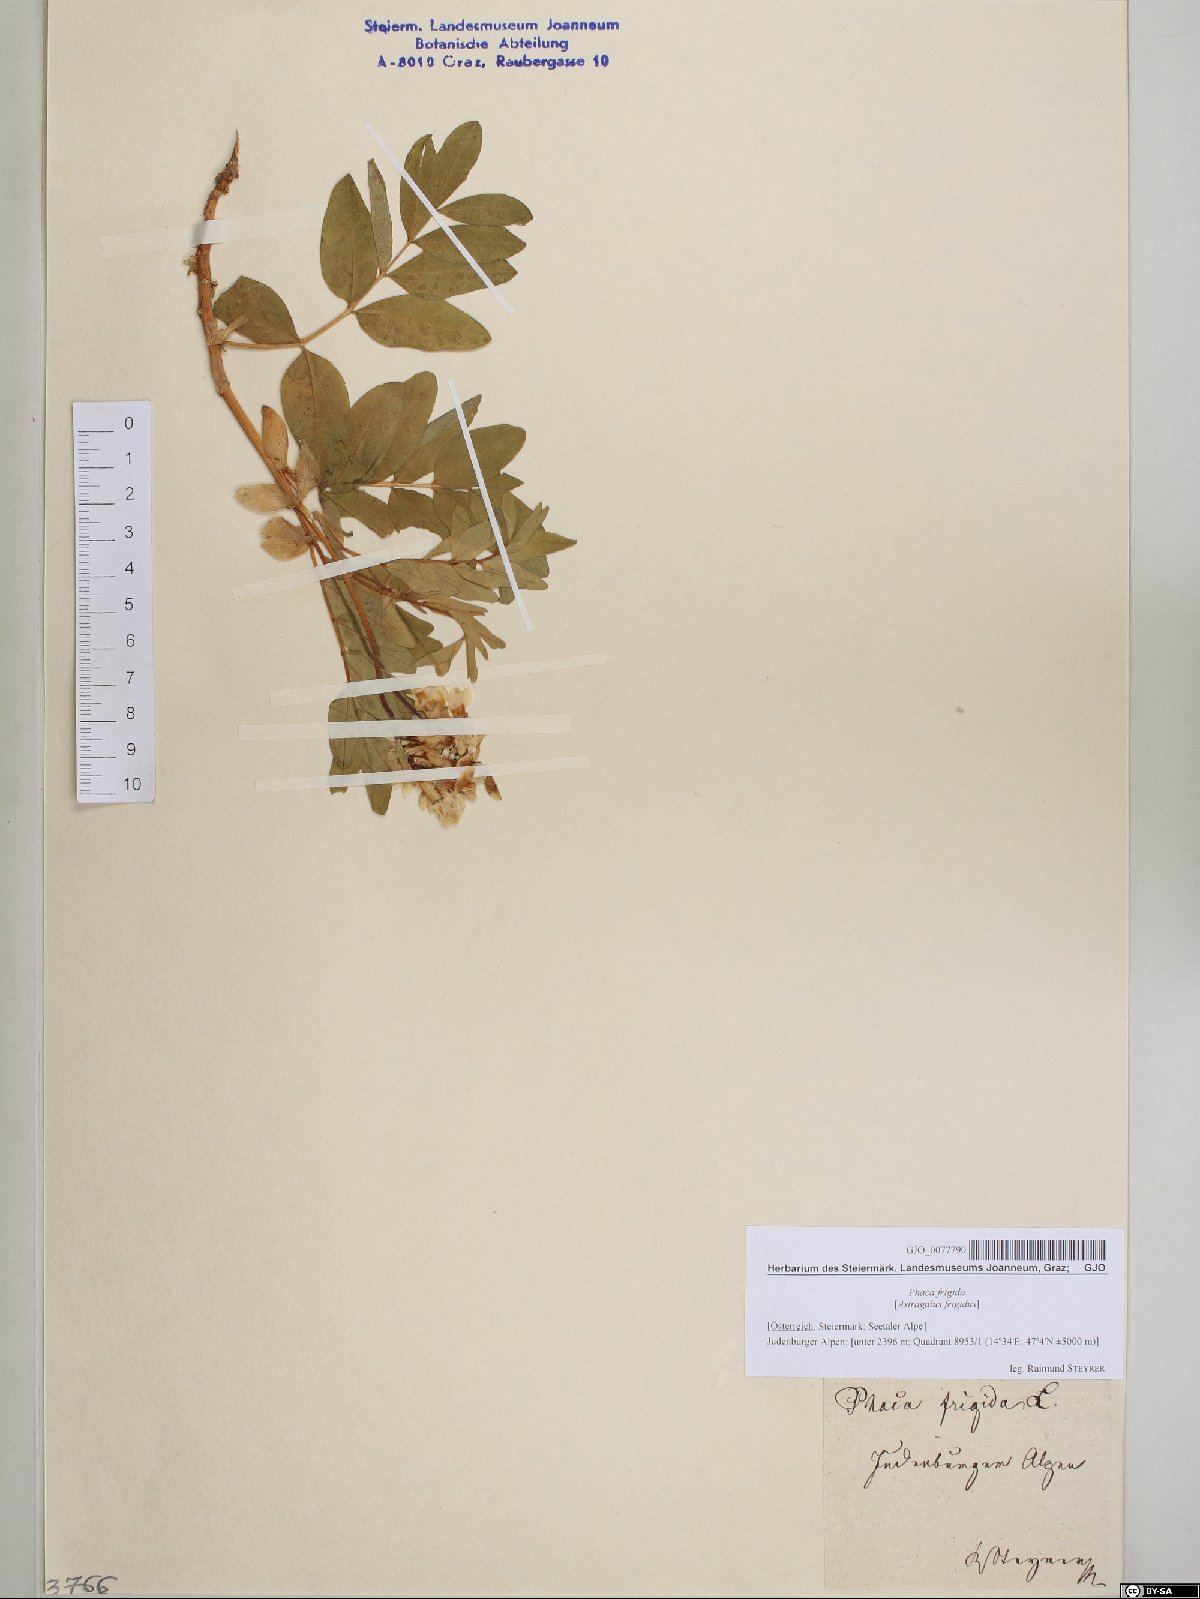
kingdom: Plantae
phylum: Tracheophyta
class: Magnoliopsida
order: Fabales
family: Fabaceae
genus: Astragalus
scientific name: Astragalus frigidus
